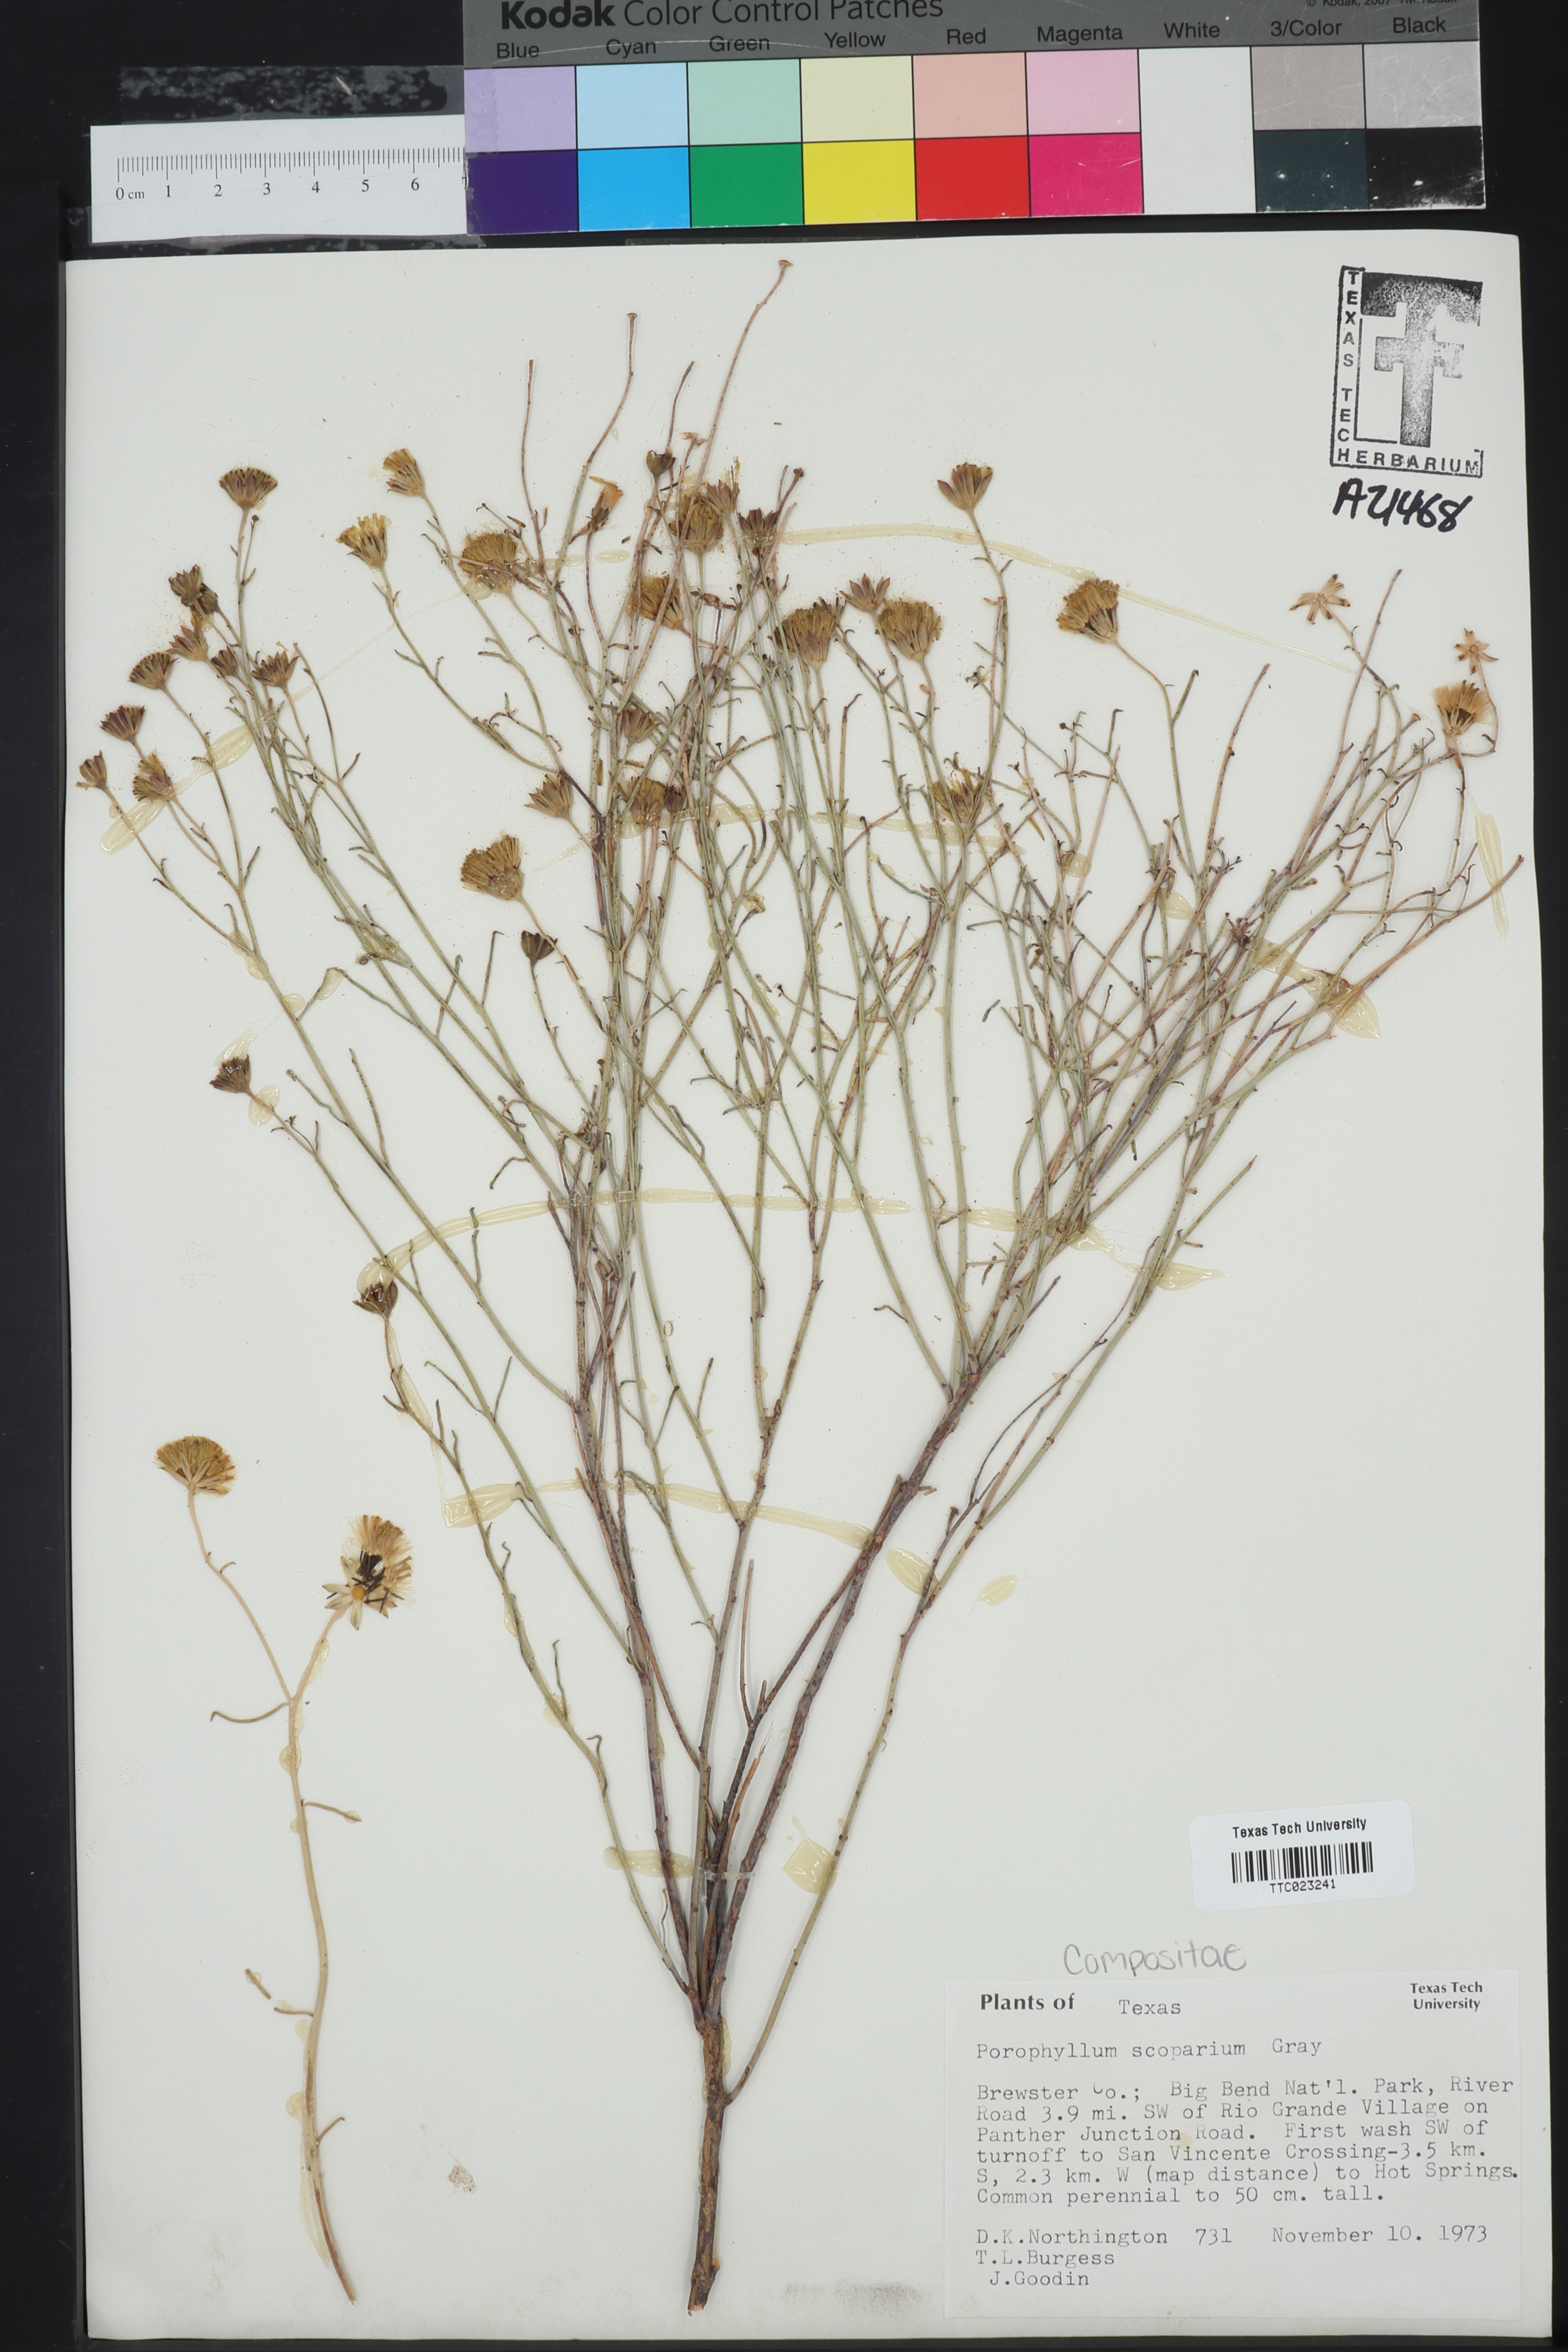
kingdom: Plantae
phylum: Tracheophyta
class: Magnoliopsida
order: Asterales
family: Asteraceae
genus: Porophyllum
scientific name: Porophyllum scoparium
